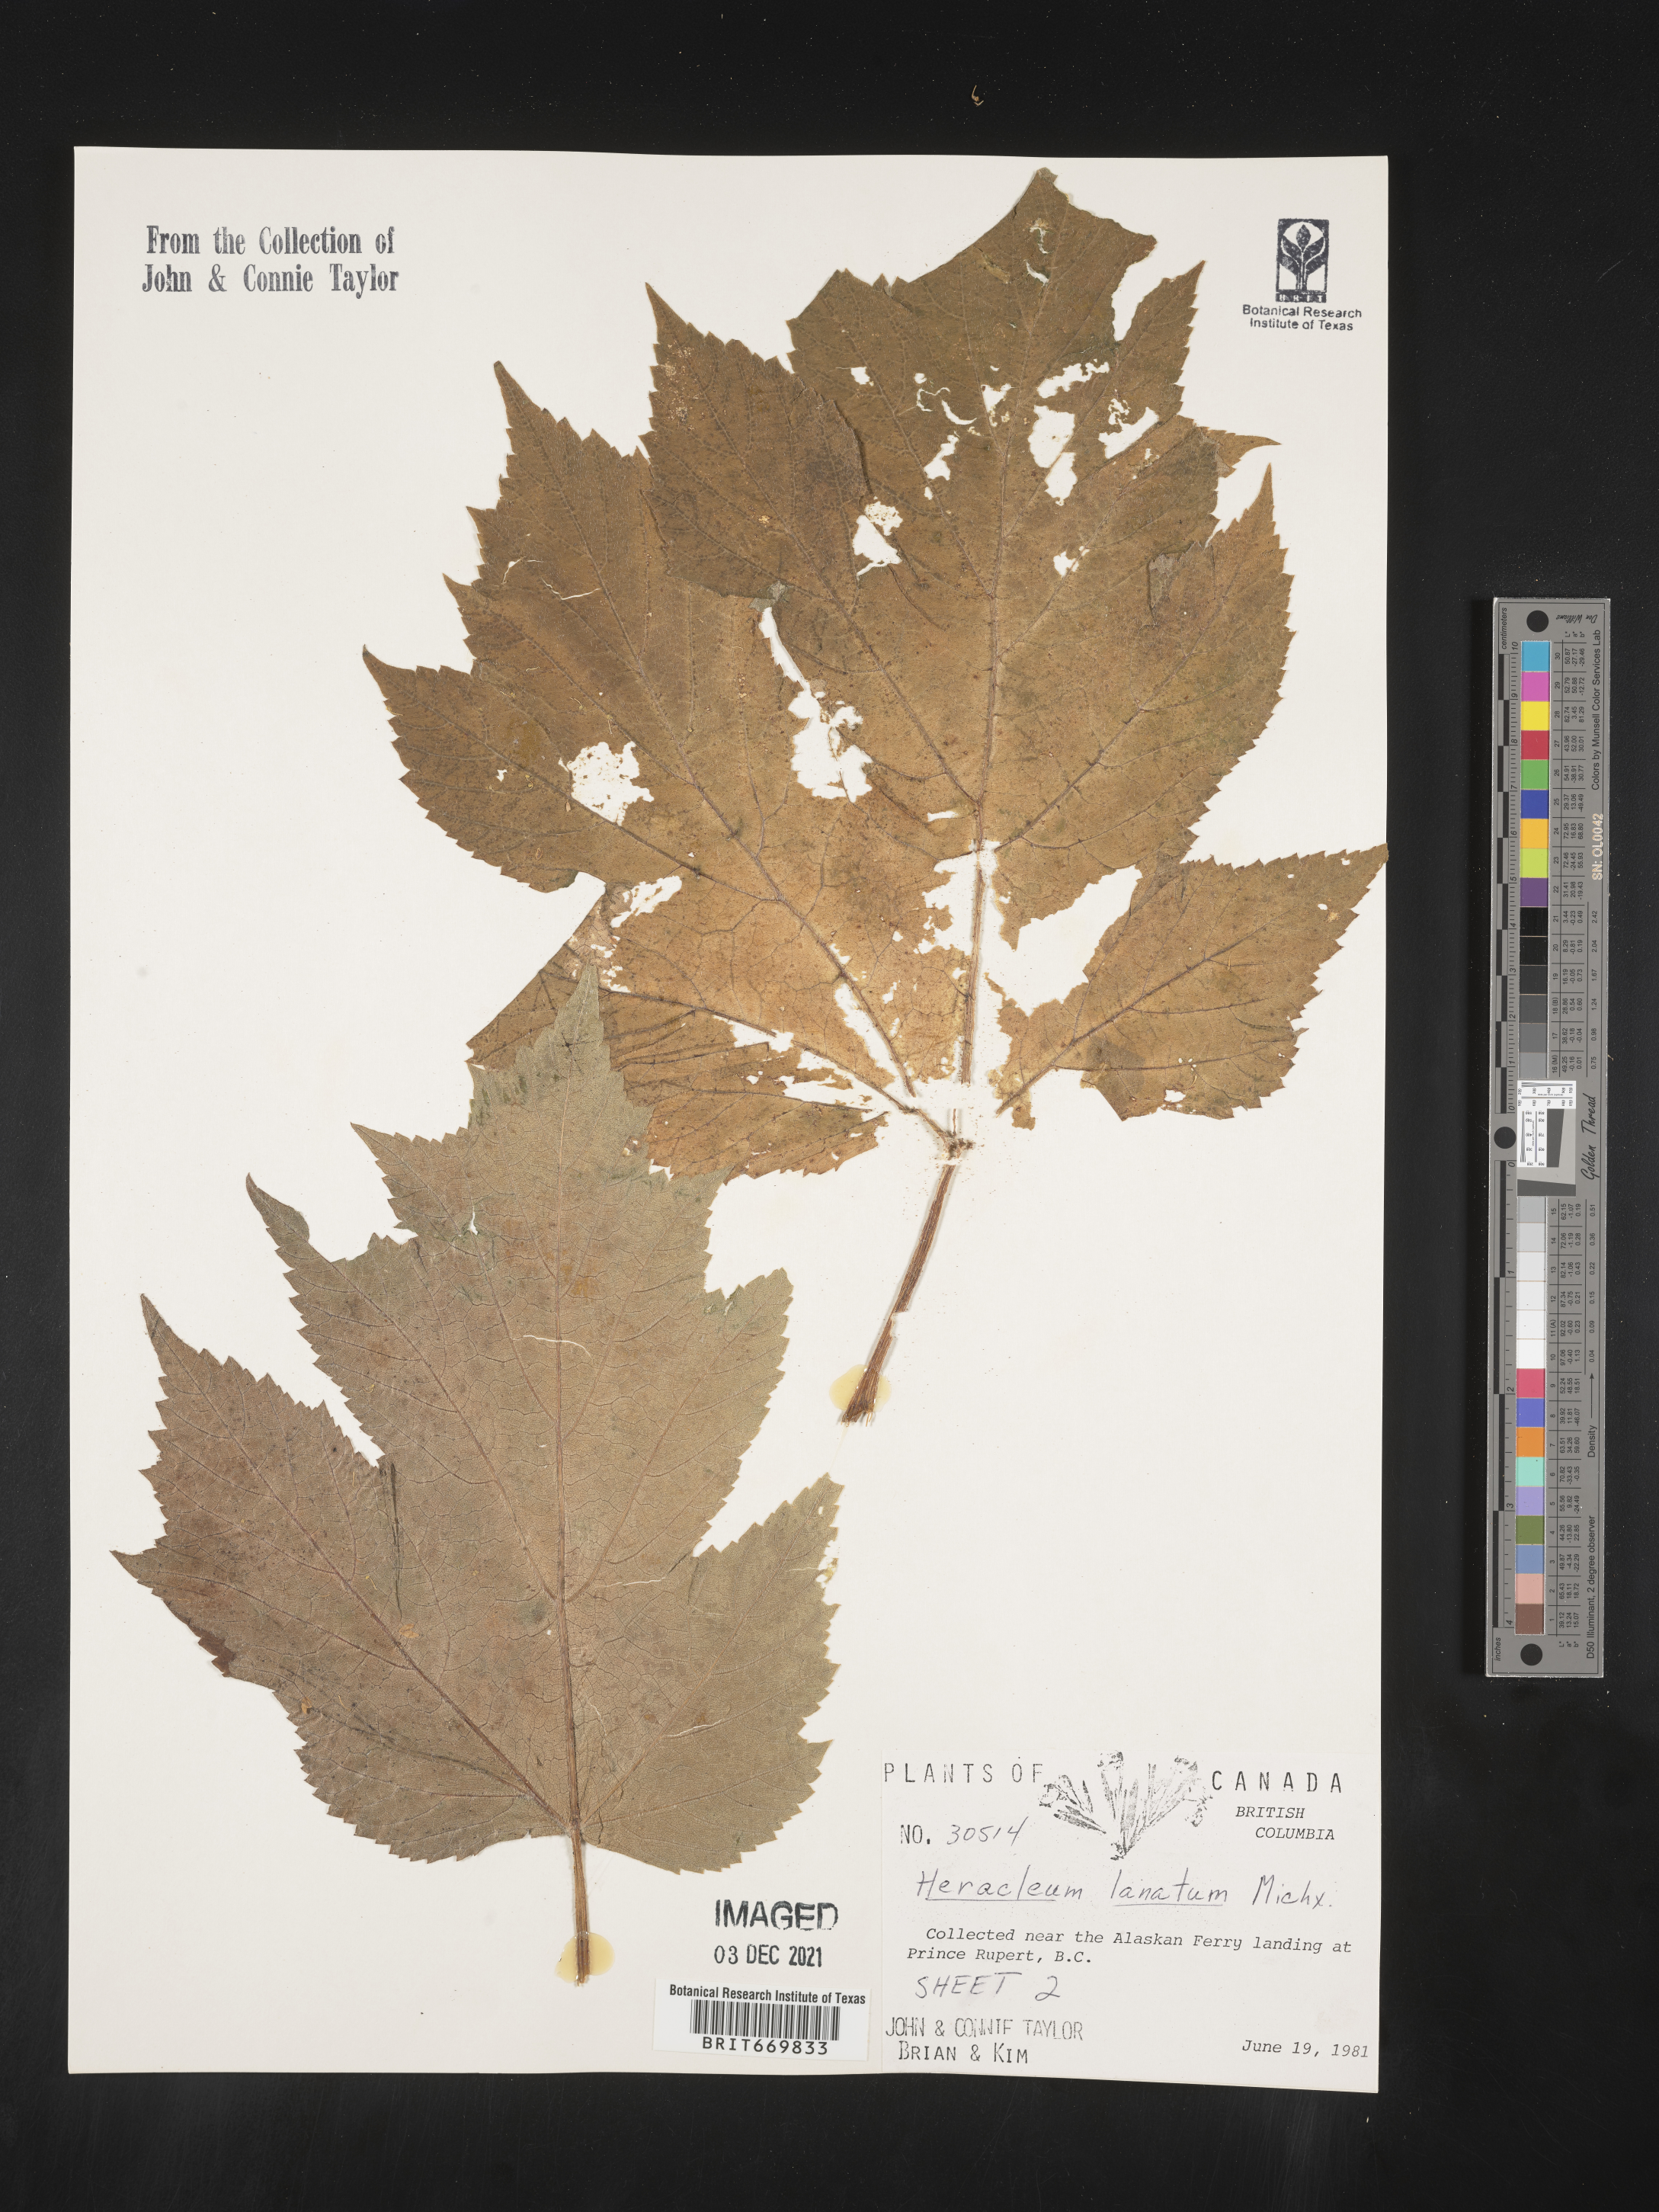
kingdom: Plantae
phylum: Tracheophyta
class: Magnoliopsida
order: Apiales
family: Apiaceae
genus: Heracleum
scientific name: Heracleum maximum
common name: American cow parsnip
